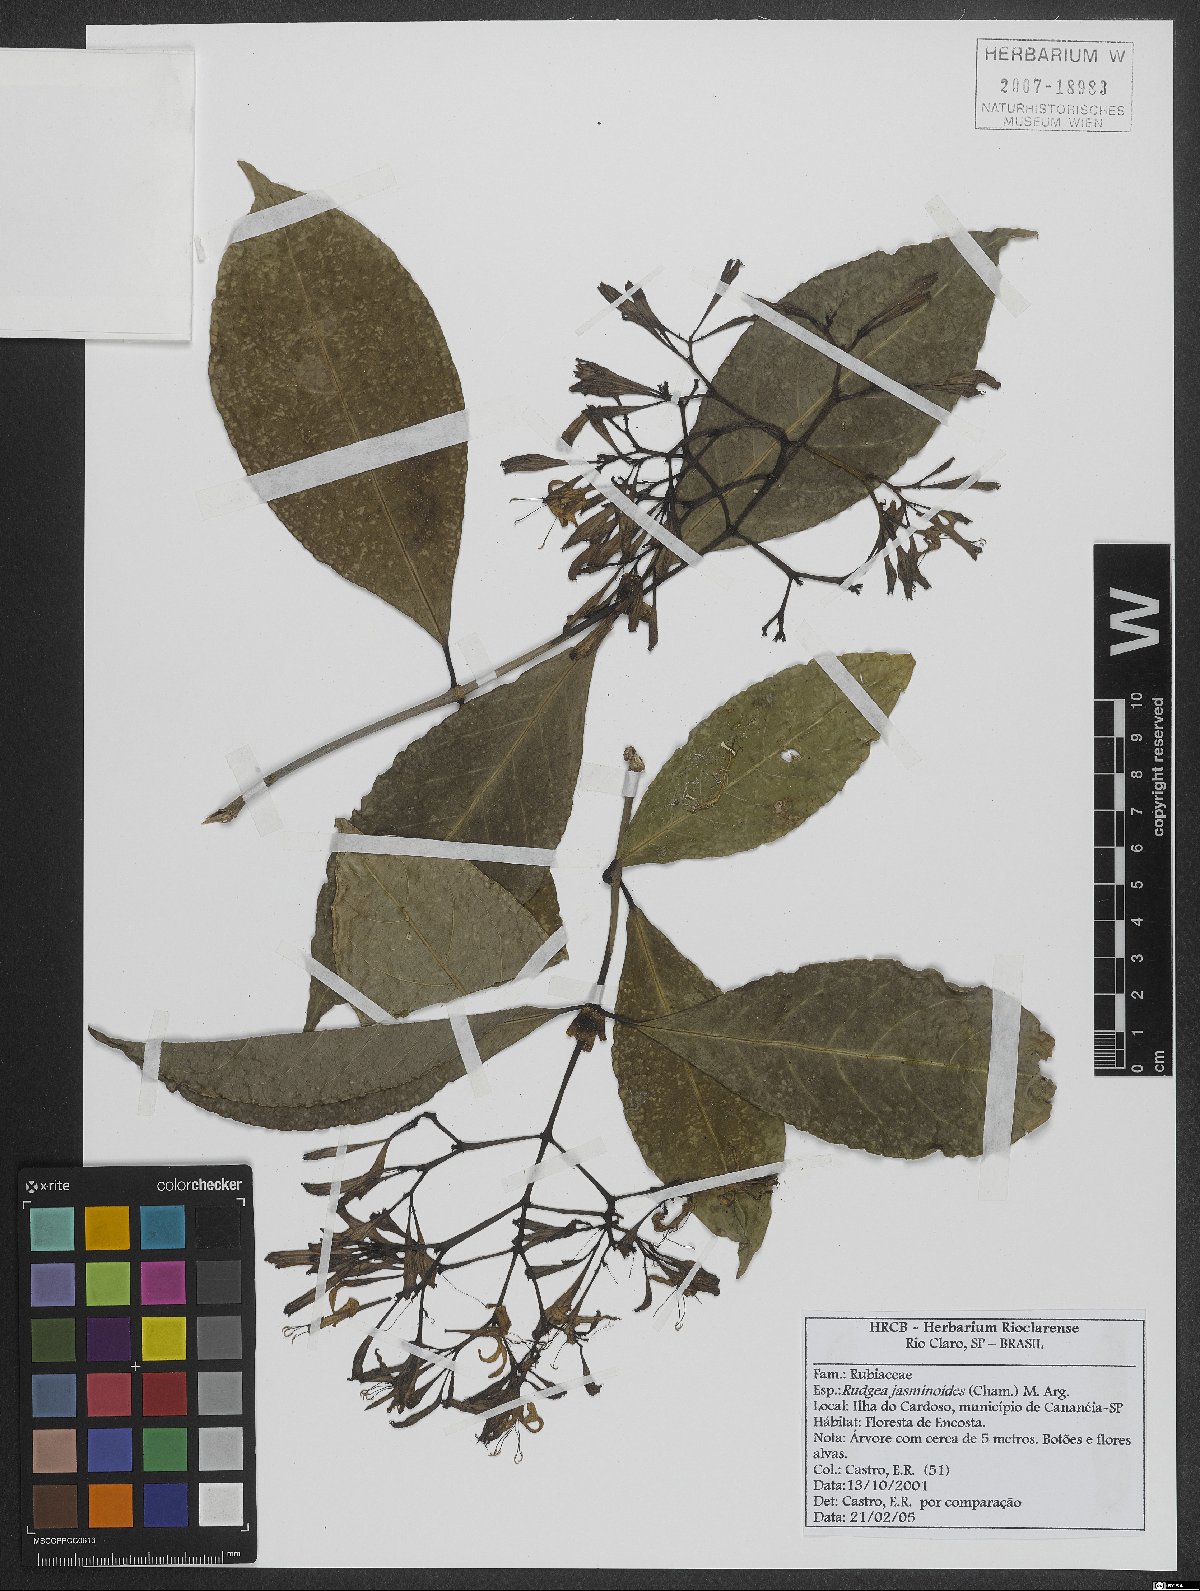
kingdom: Plantae
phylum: Tracheophyta
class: Magnoliopsida
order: Gentianales
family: Rubiaceae
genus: Rudgea
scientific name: Rudgea jasminoides
